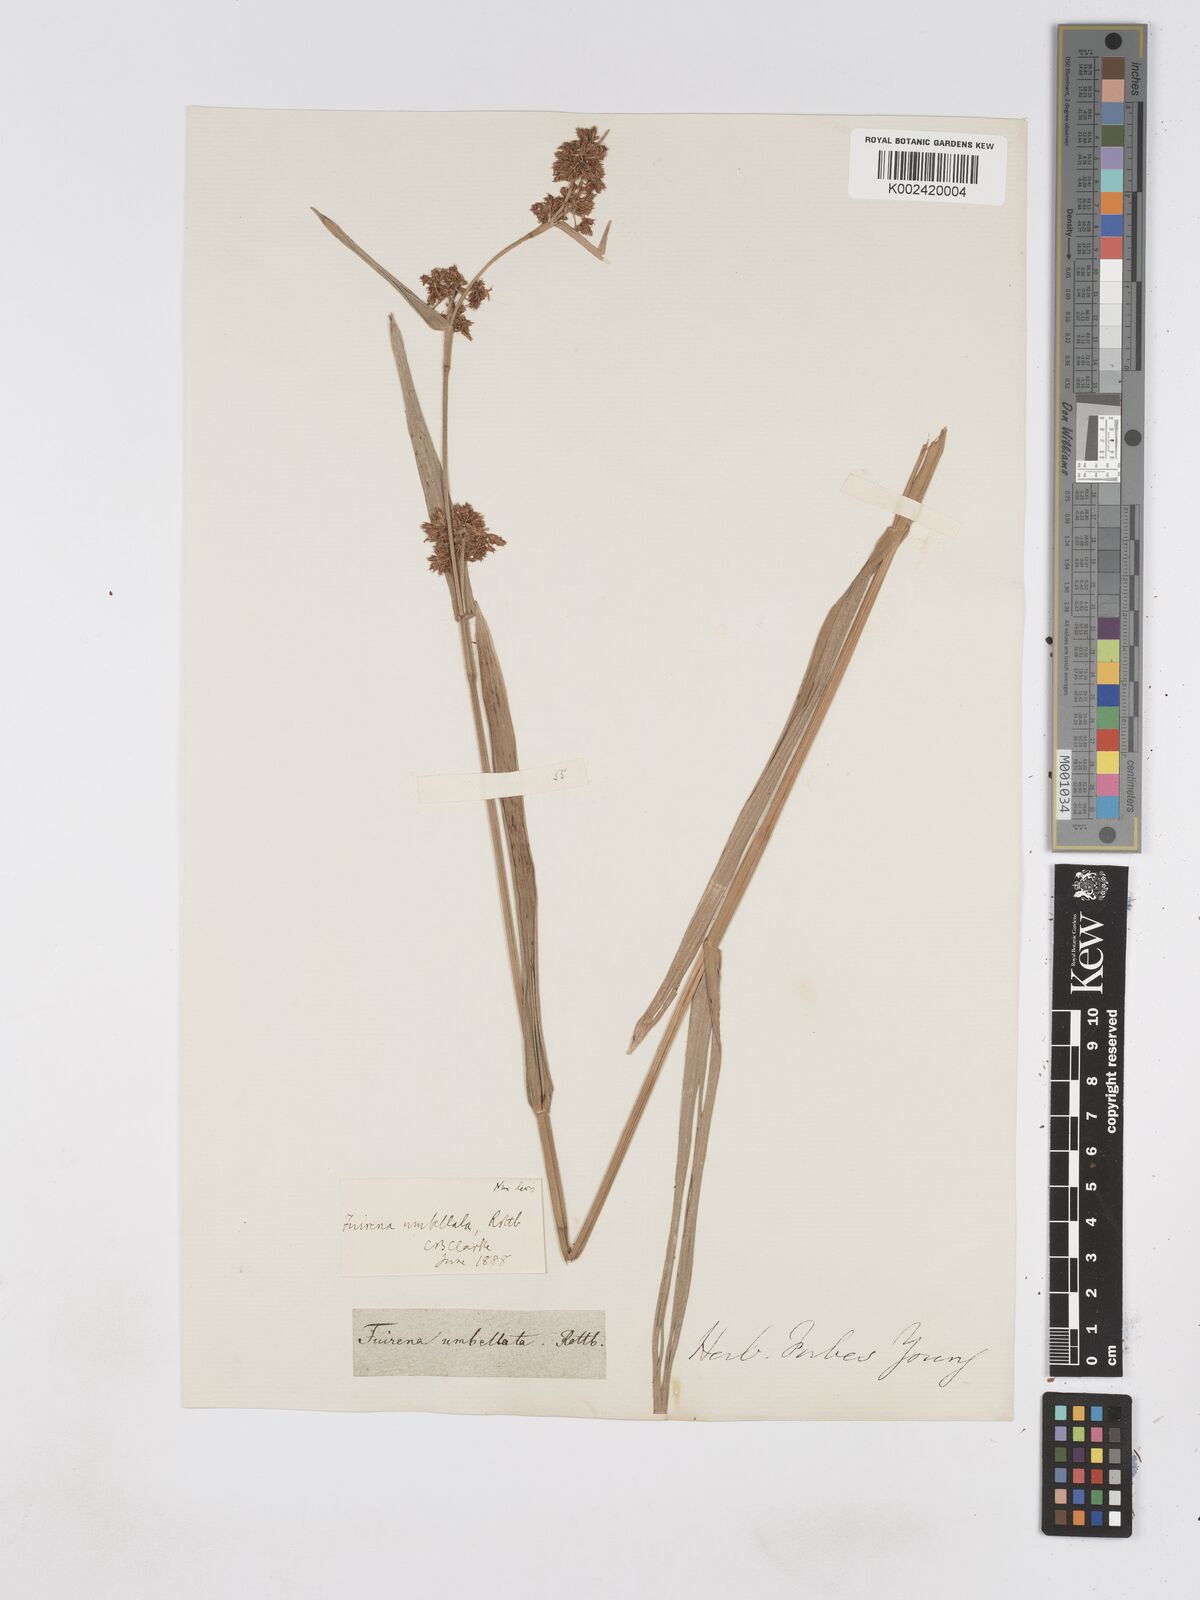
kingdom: Plantae
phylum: Tracheophyta
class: Liliopsida
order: Poales
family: Cyperaceae
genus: Fuirena
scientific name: Fuirena umbellata
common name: Yefen
